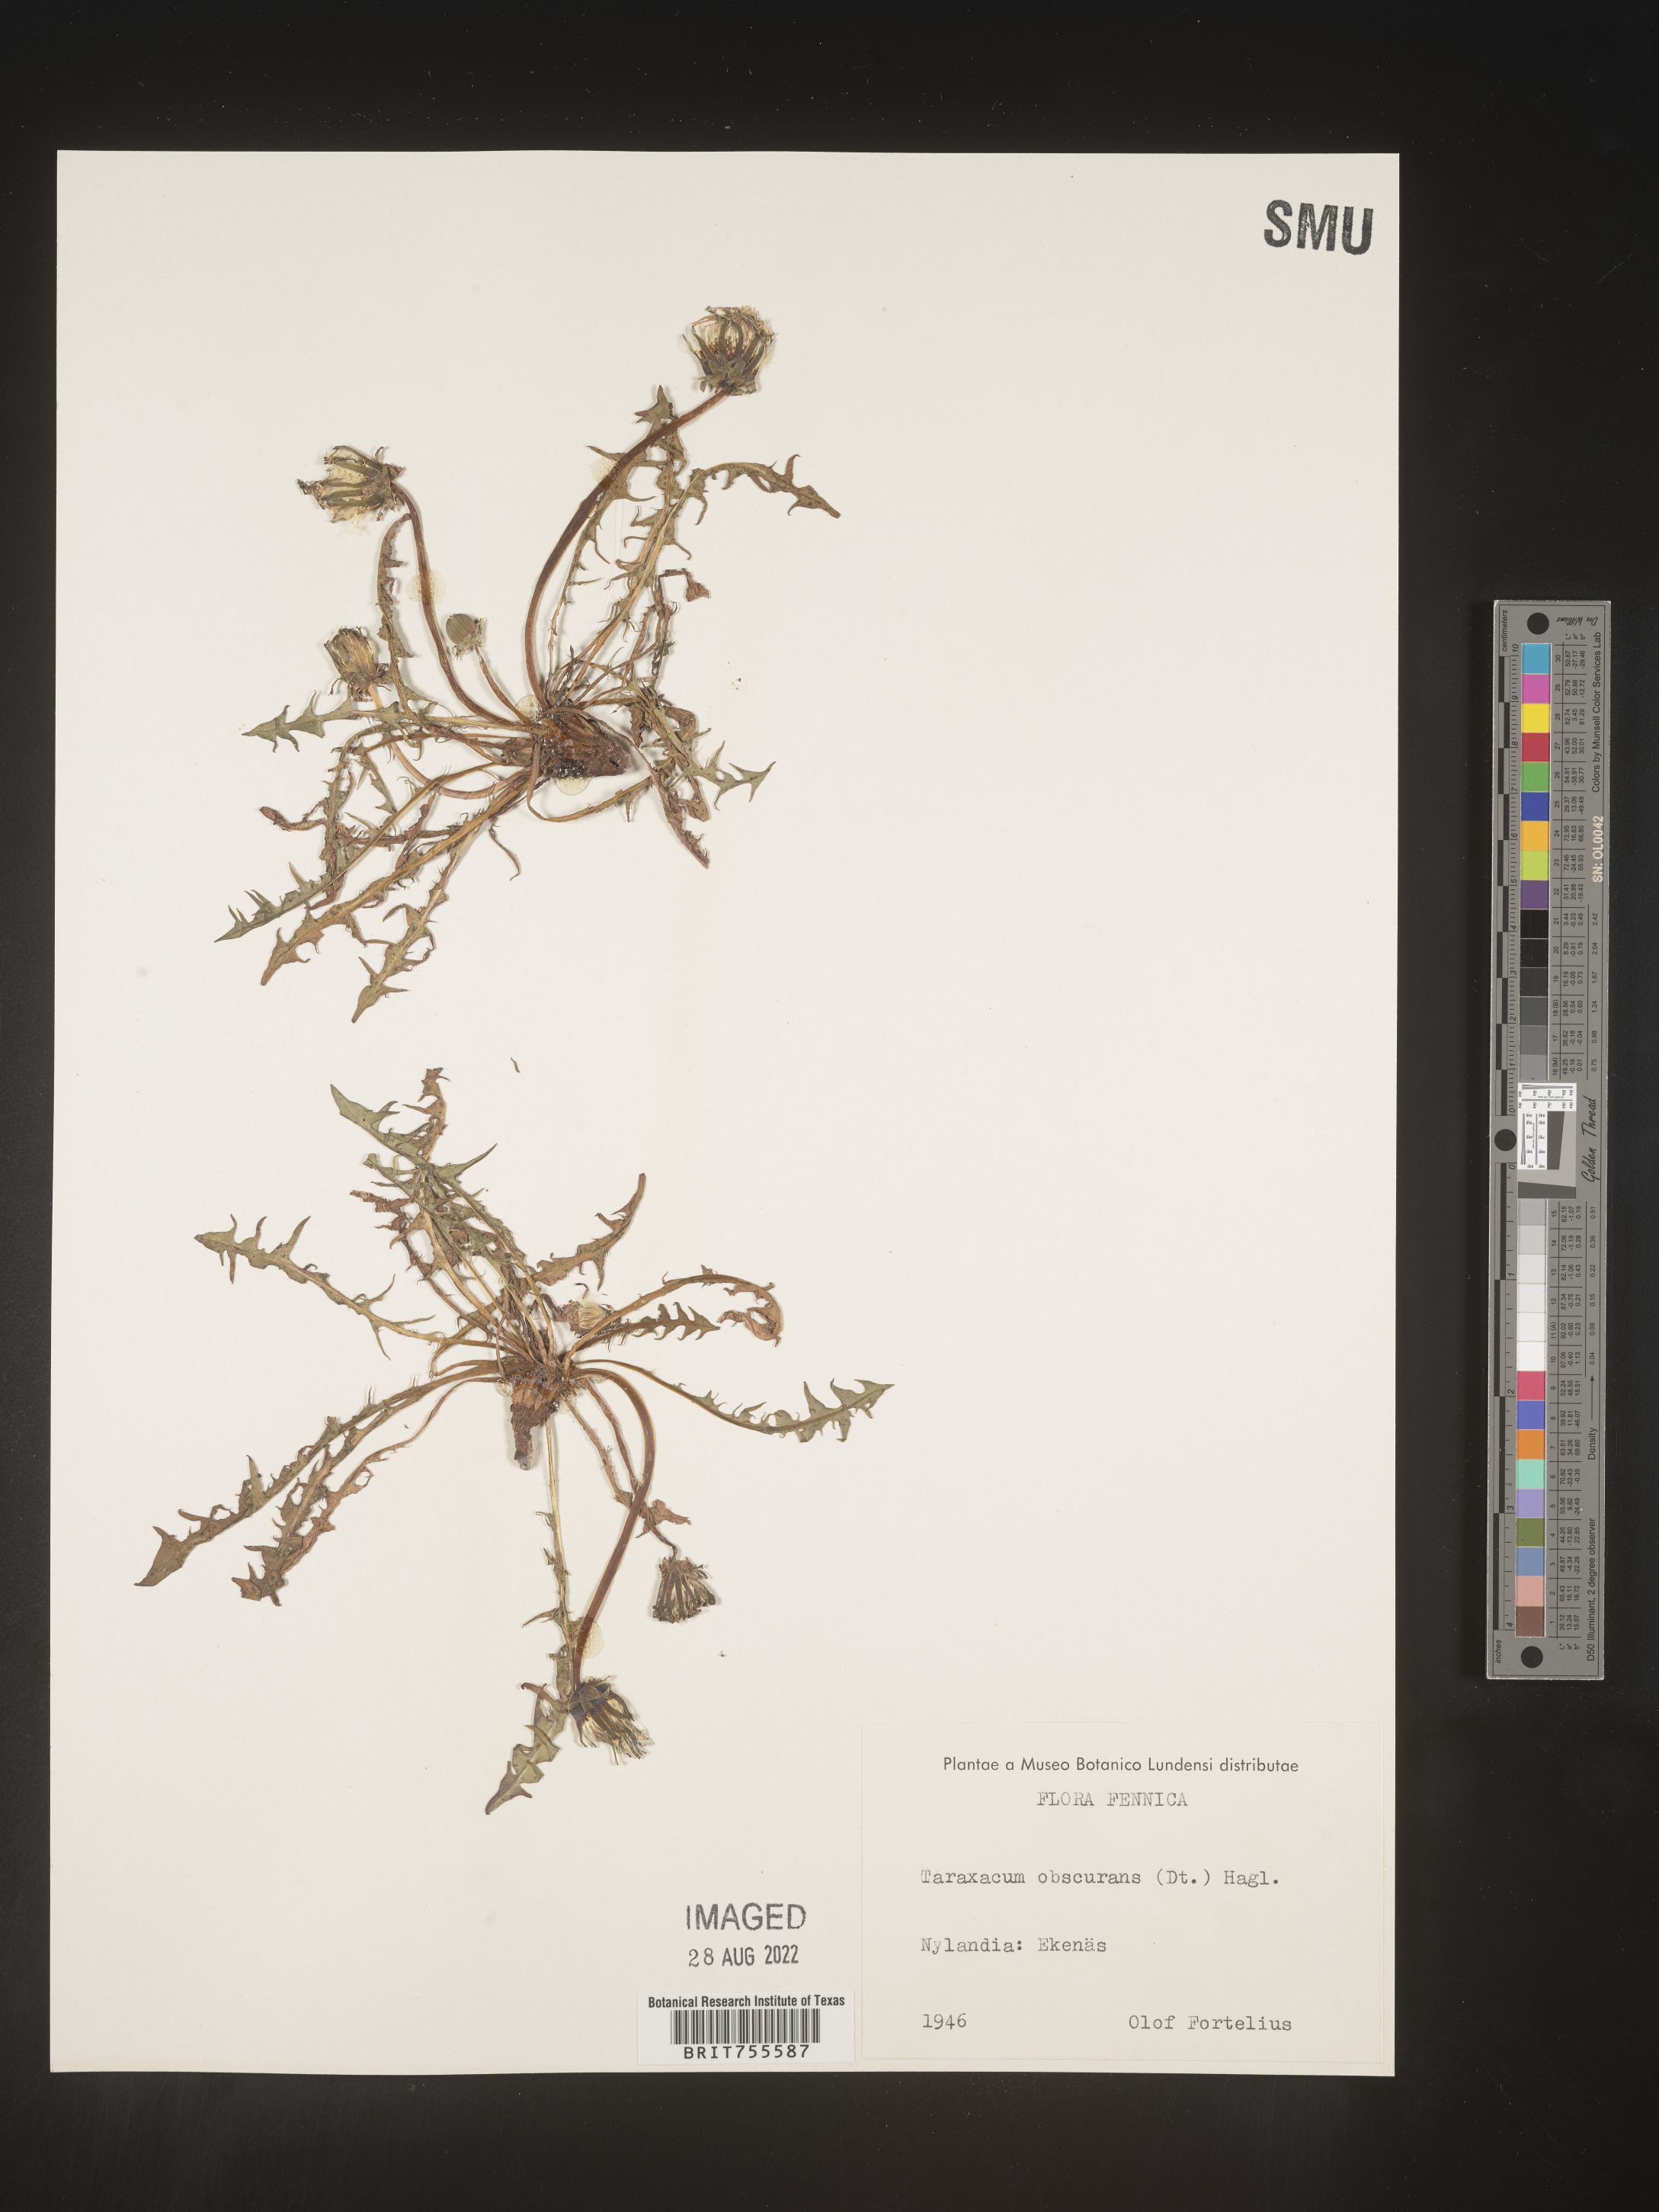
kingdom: Plantae
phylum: Tracheophyta
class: Magnoliopsida
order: Asterales
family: Asteraceae
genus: Taraxacum
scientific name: Taraxacum
